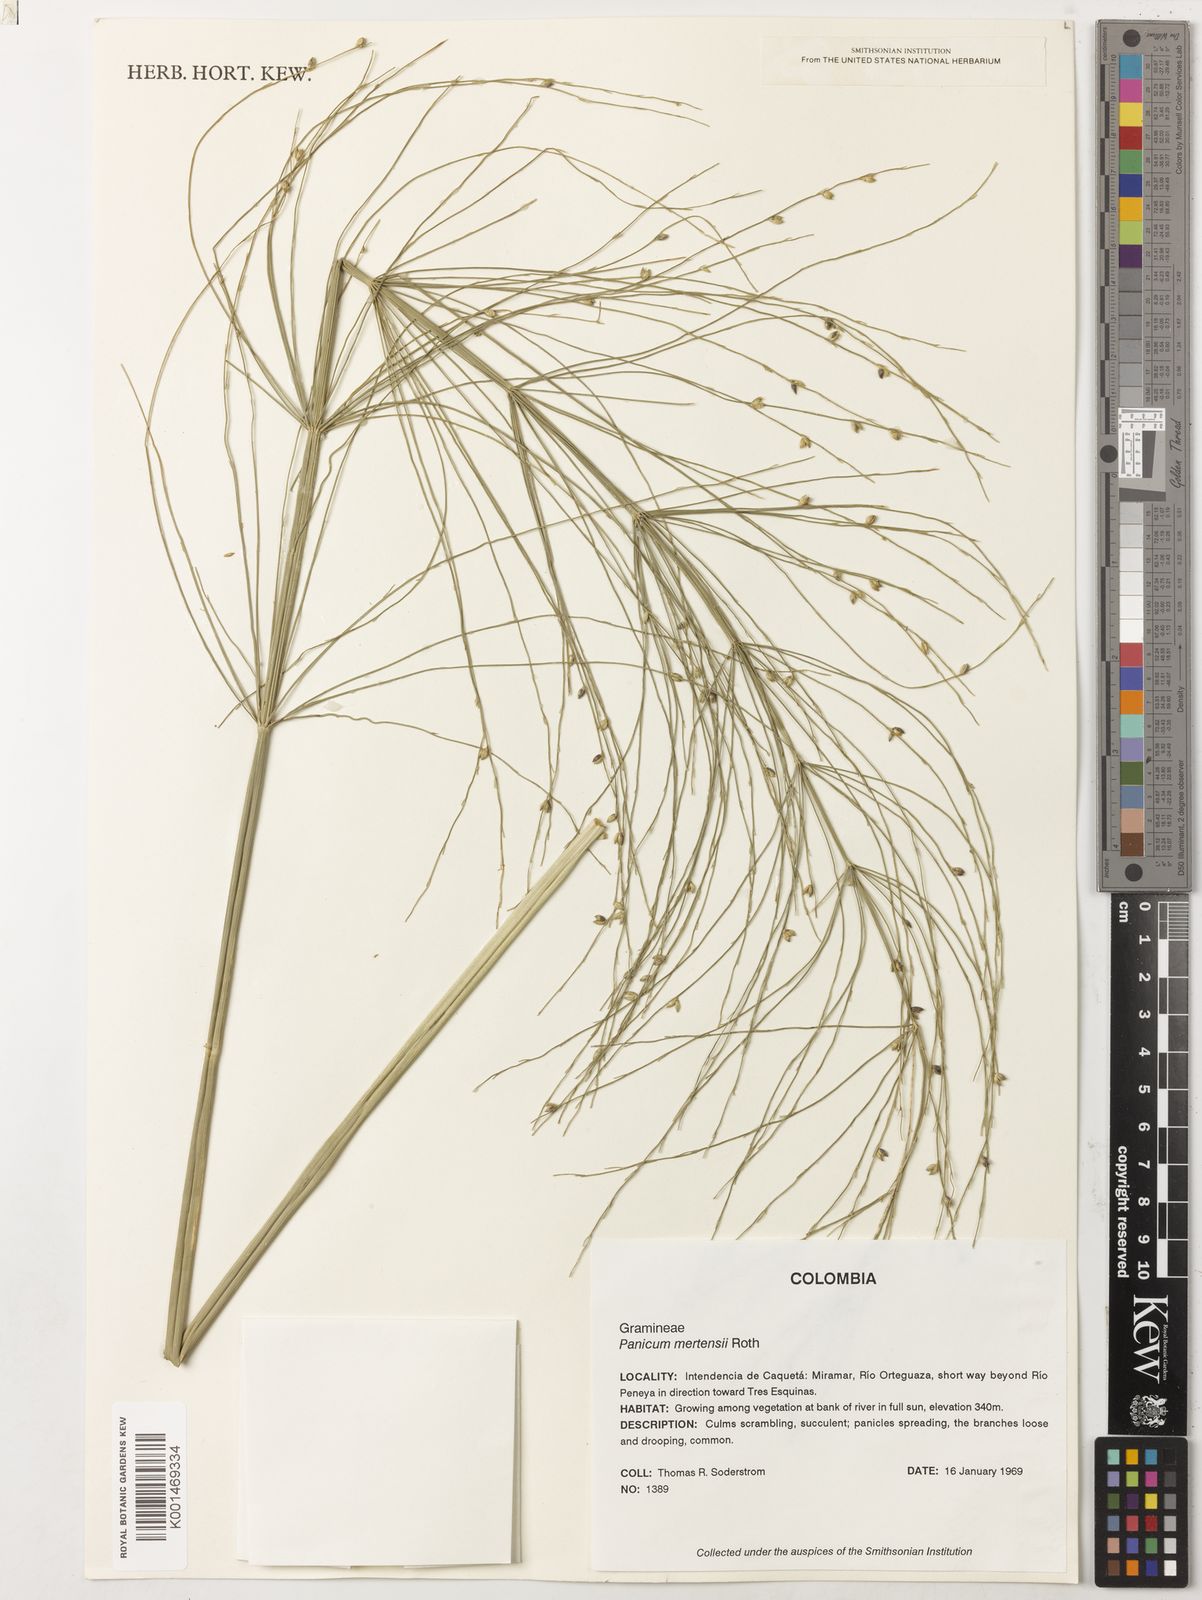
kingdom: Plantae
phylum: Tracheophyta
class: Liliopsida
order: Poales
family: Poaceae
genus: Stephostachys
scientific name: Stephostachys mertensii
